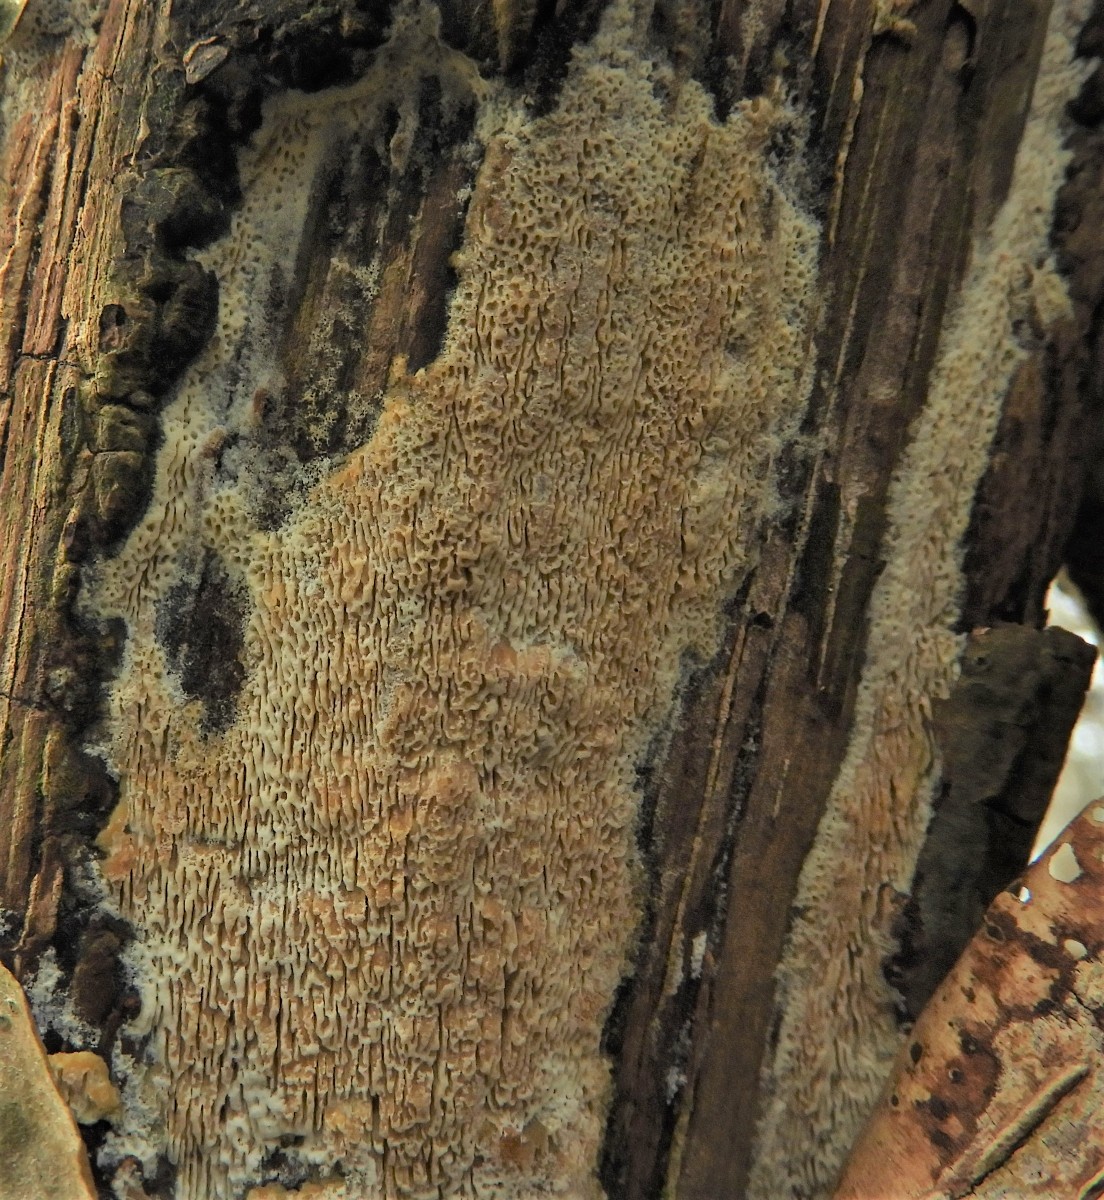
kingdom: Fungi
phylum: Basidiomycota
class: Agaricomycetes
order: Polyporales
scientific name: Polyporales
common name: poresvampordenen
